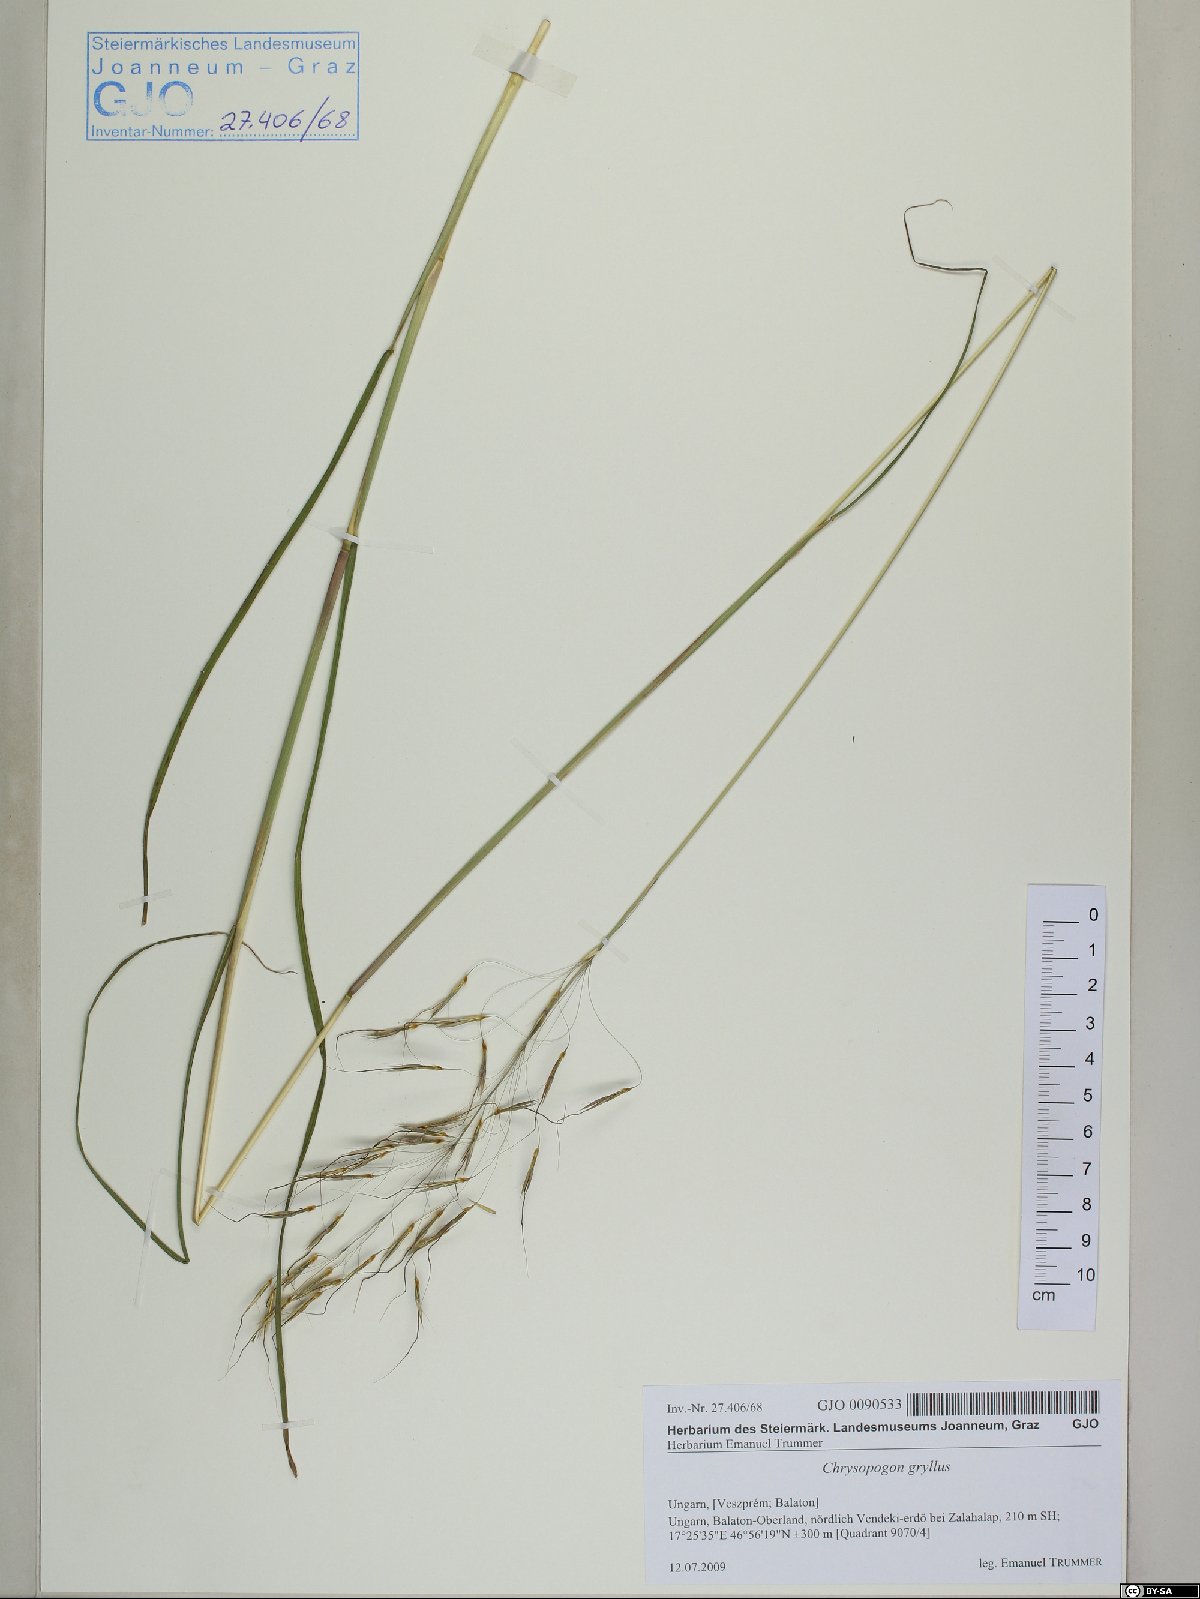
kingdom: Plantae
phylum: Tracheophyta
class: Liliopsida
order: Poales
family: Poaceae
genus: Chrysopogon
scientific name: Chrysopogon gryllus
